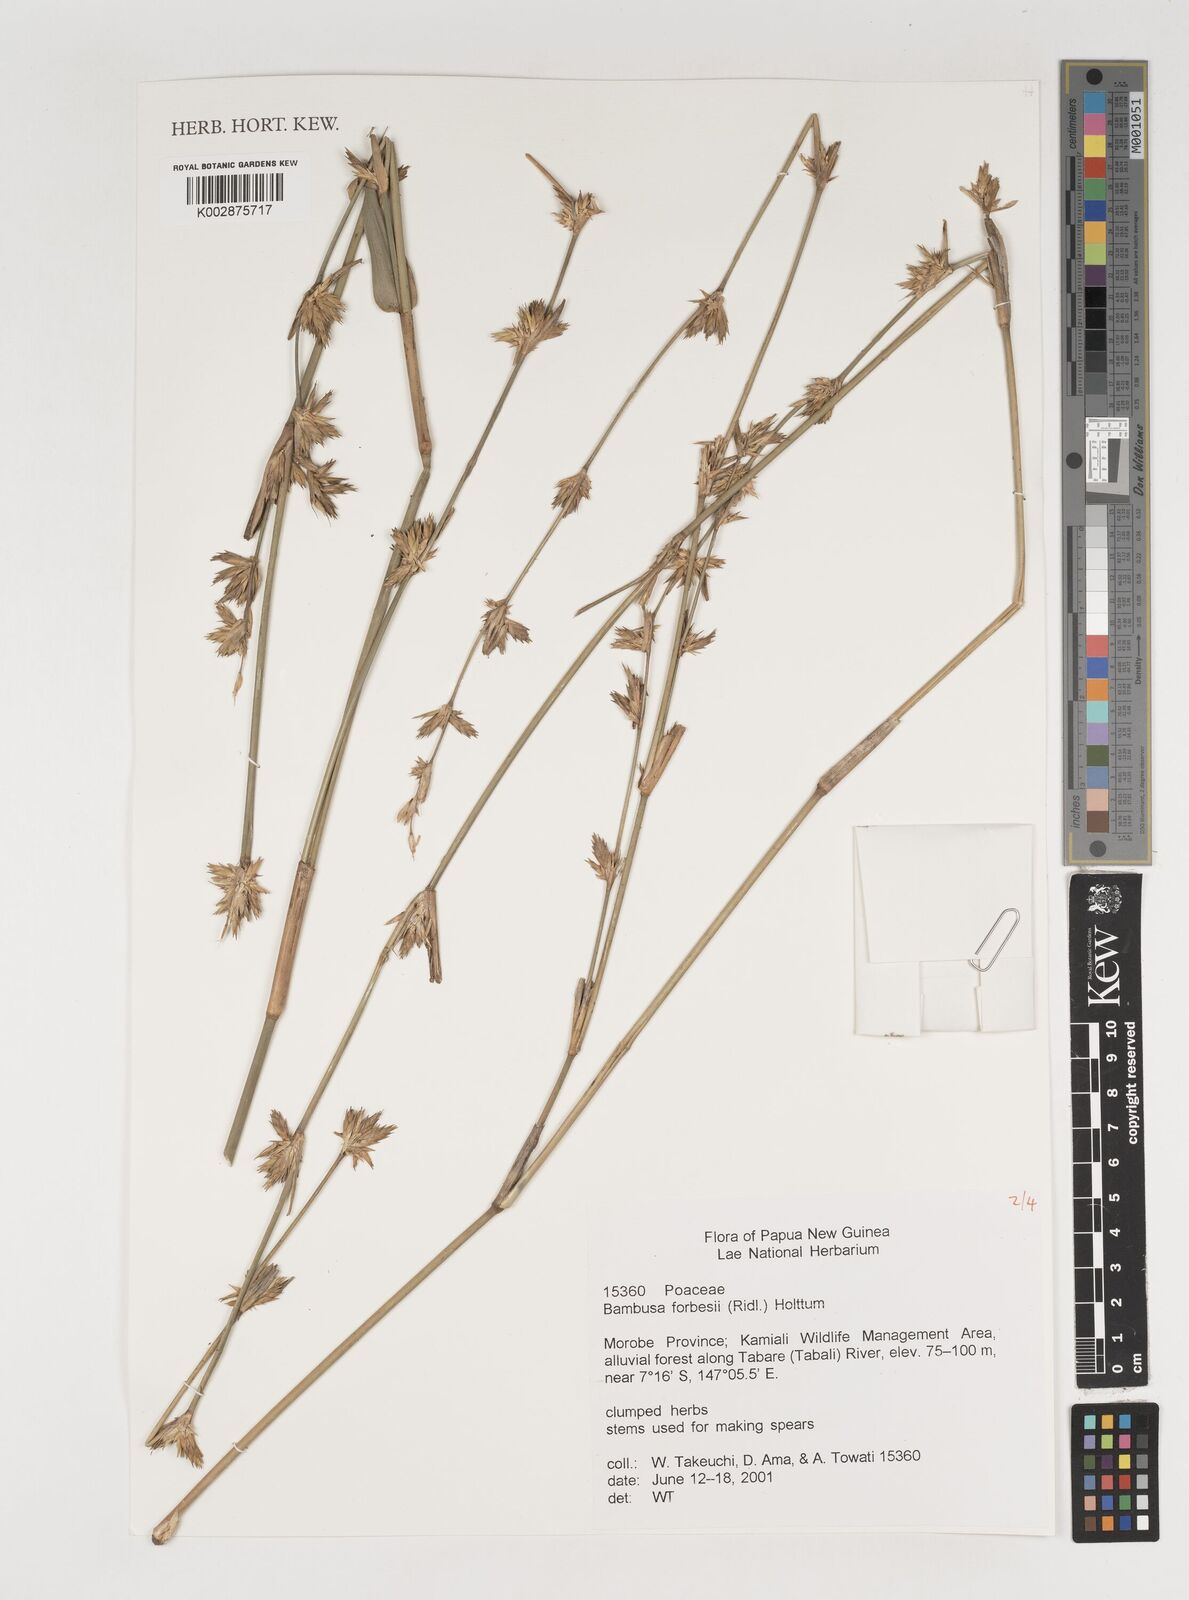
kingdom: Plantae
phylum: Tracheophyta
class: Liliopsida
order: Poales
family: Poaceae
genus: Neololeba
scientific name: Neololeba atra
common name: Cape bamboo
